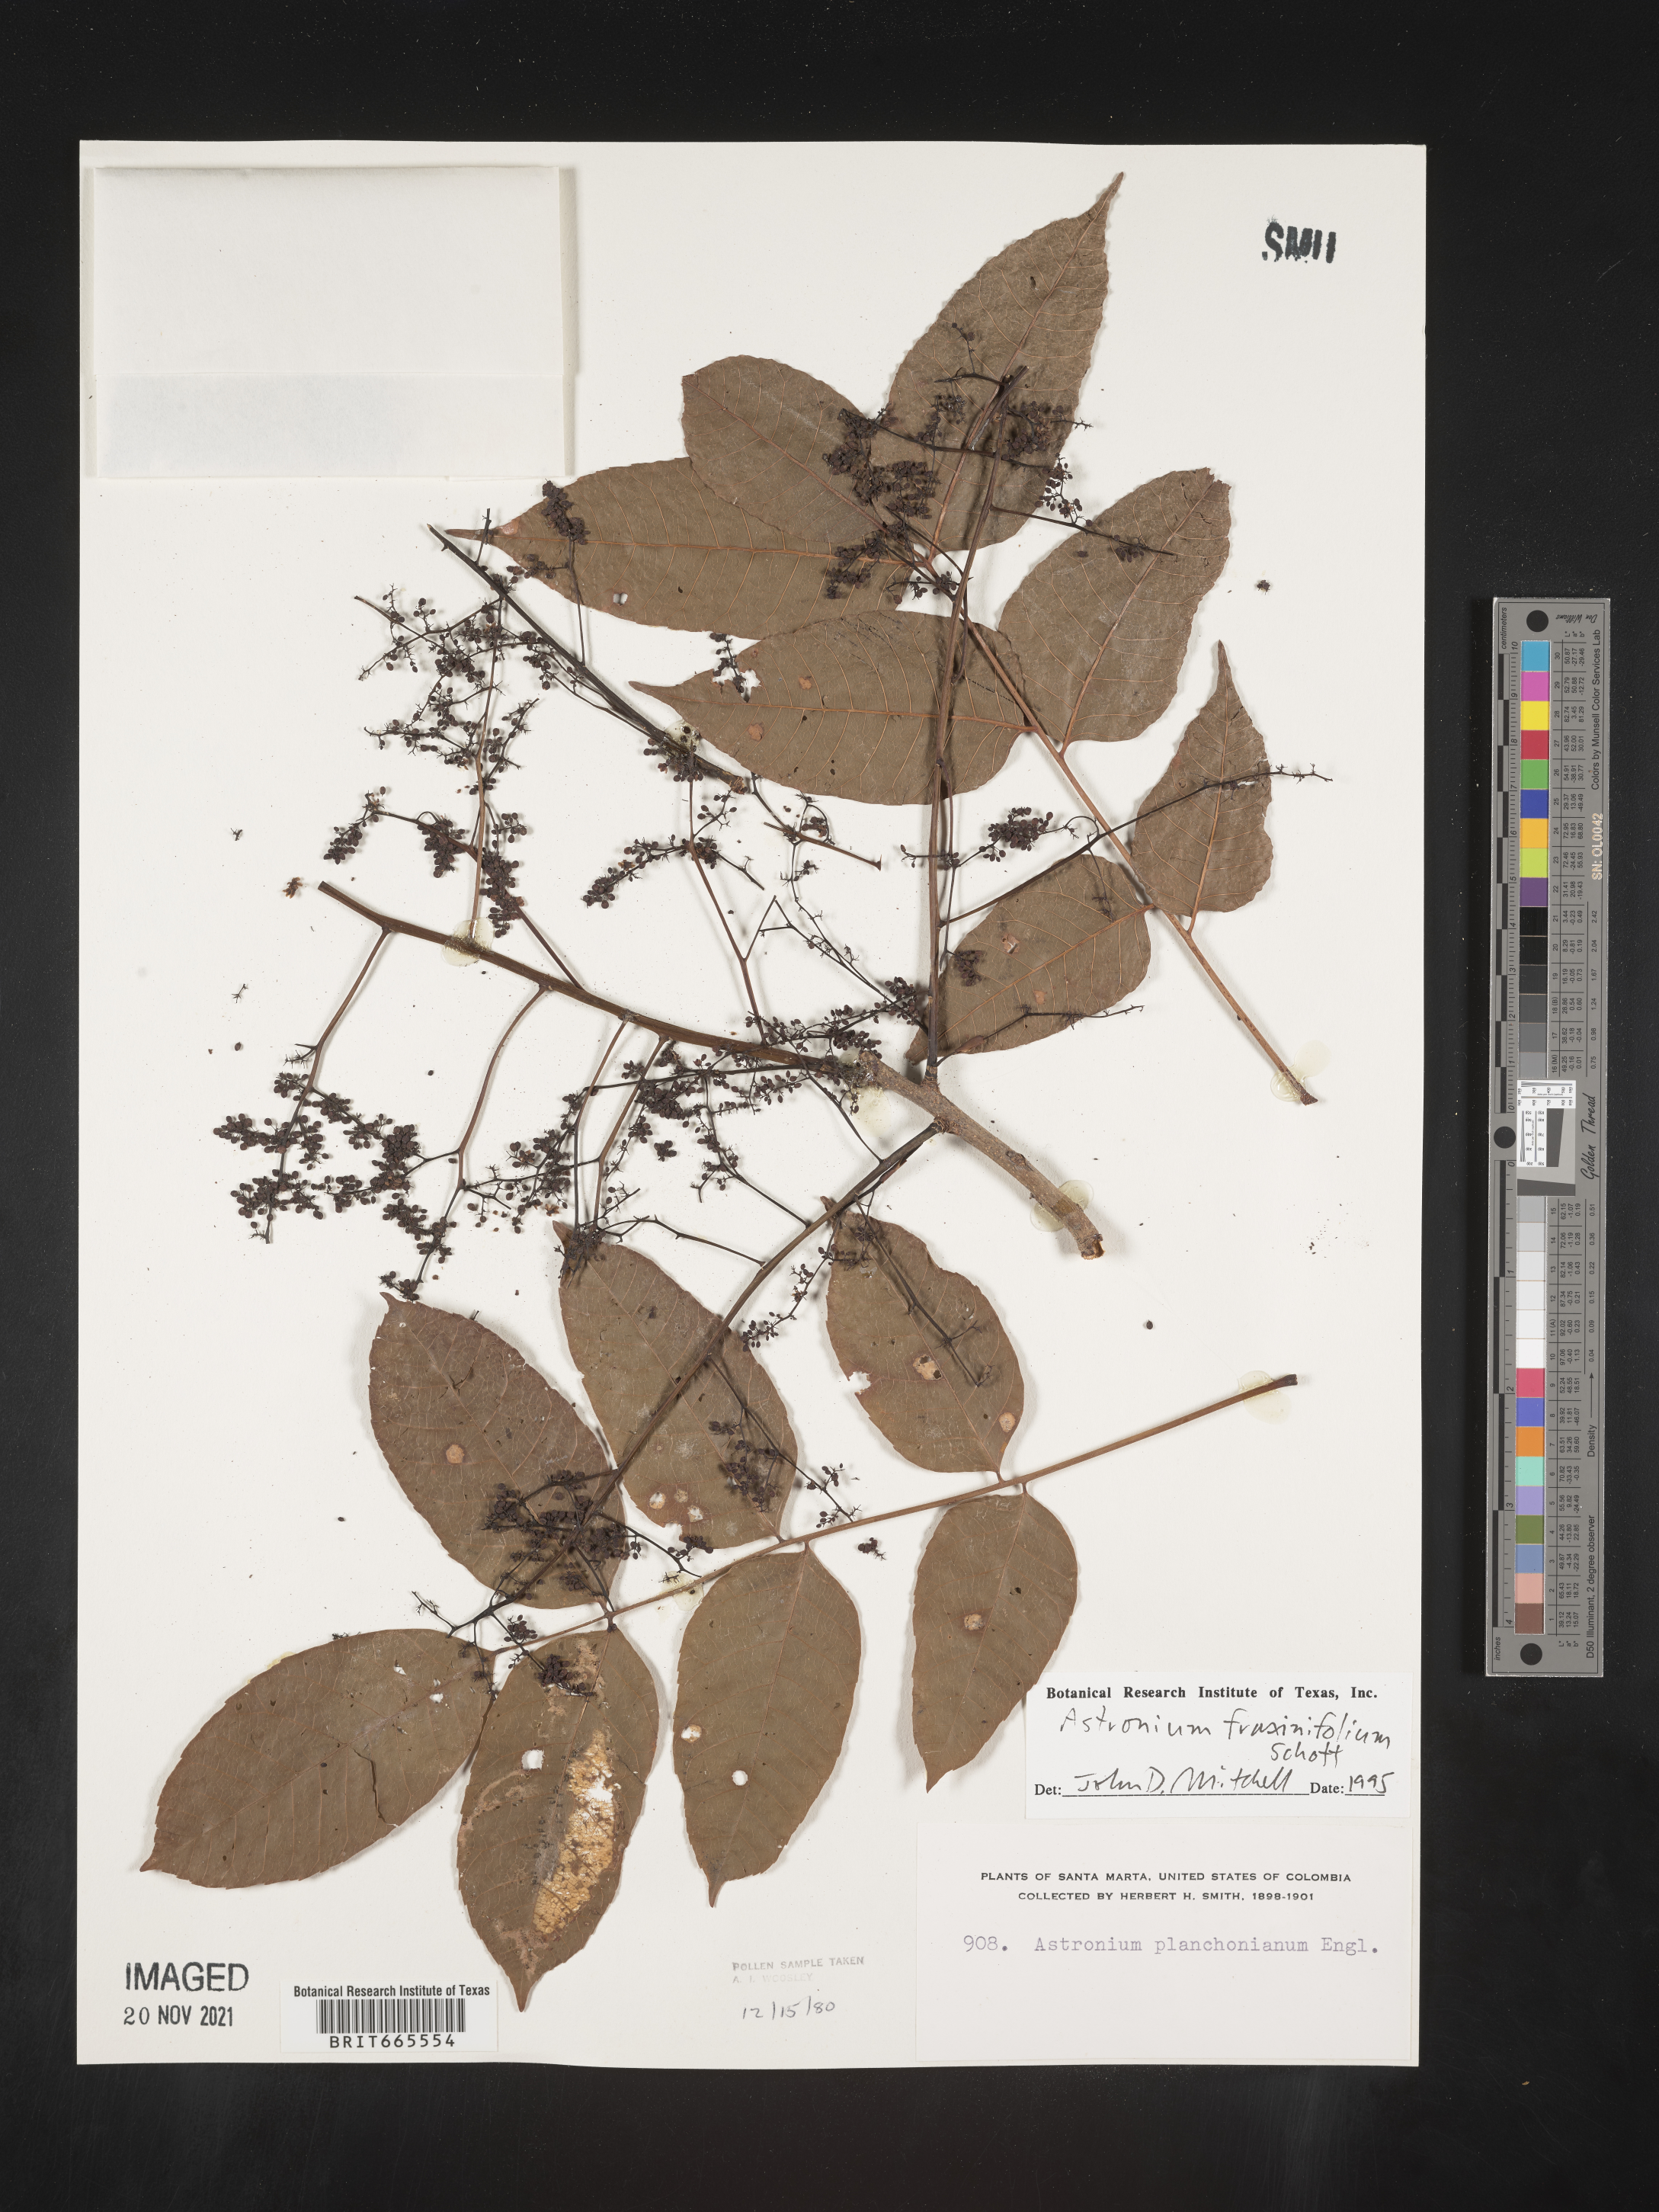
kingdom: Plantae
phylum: Tracheophyta
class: Magnoliopsida
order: Sapindales
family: Anacardiaceae
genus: Astronium
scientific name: Astronium
